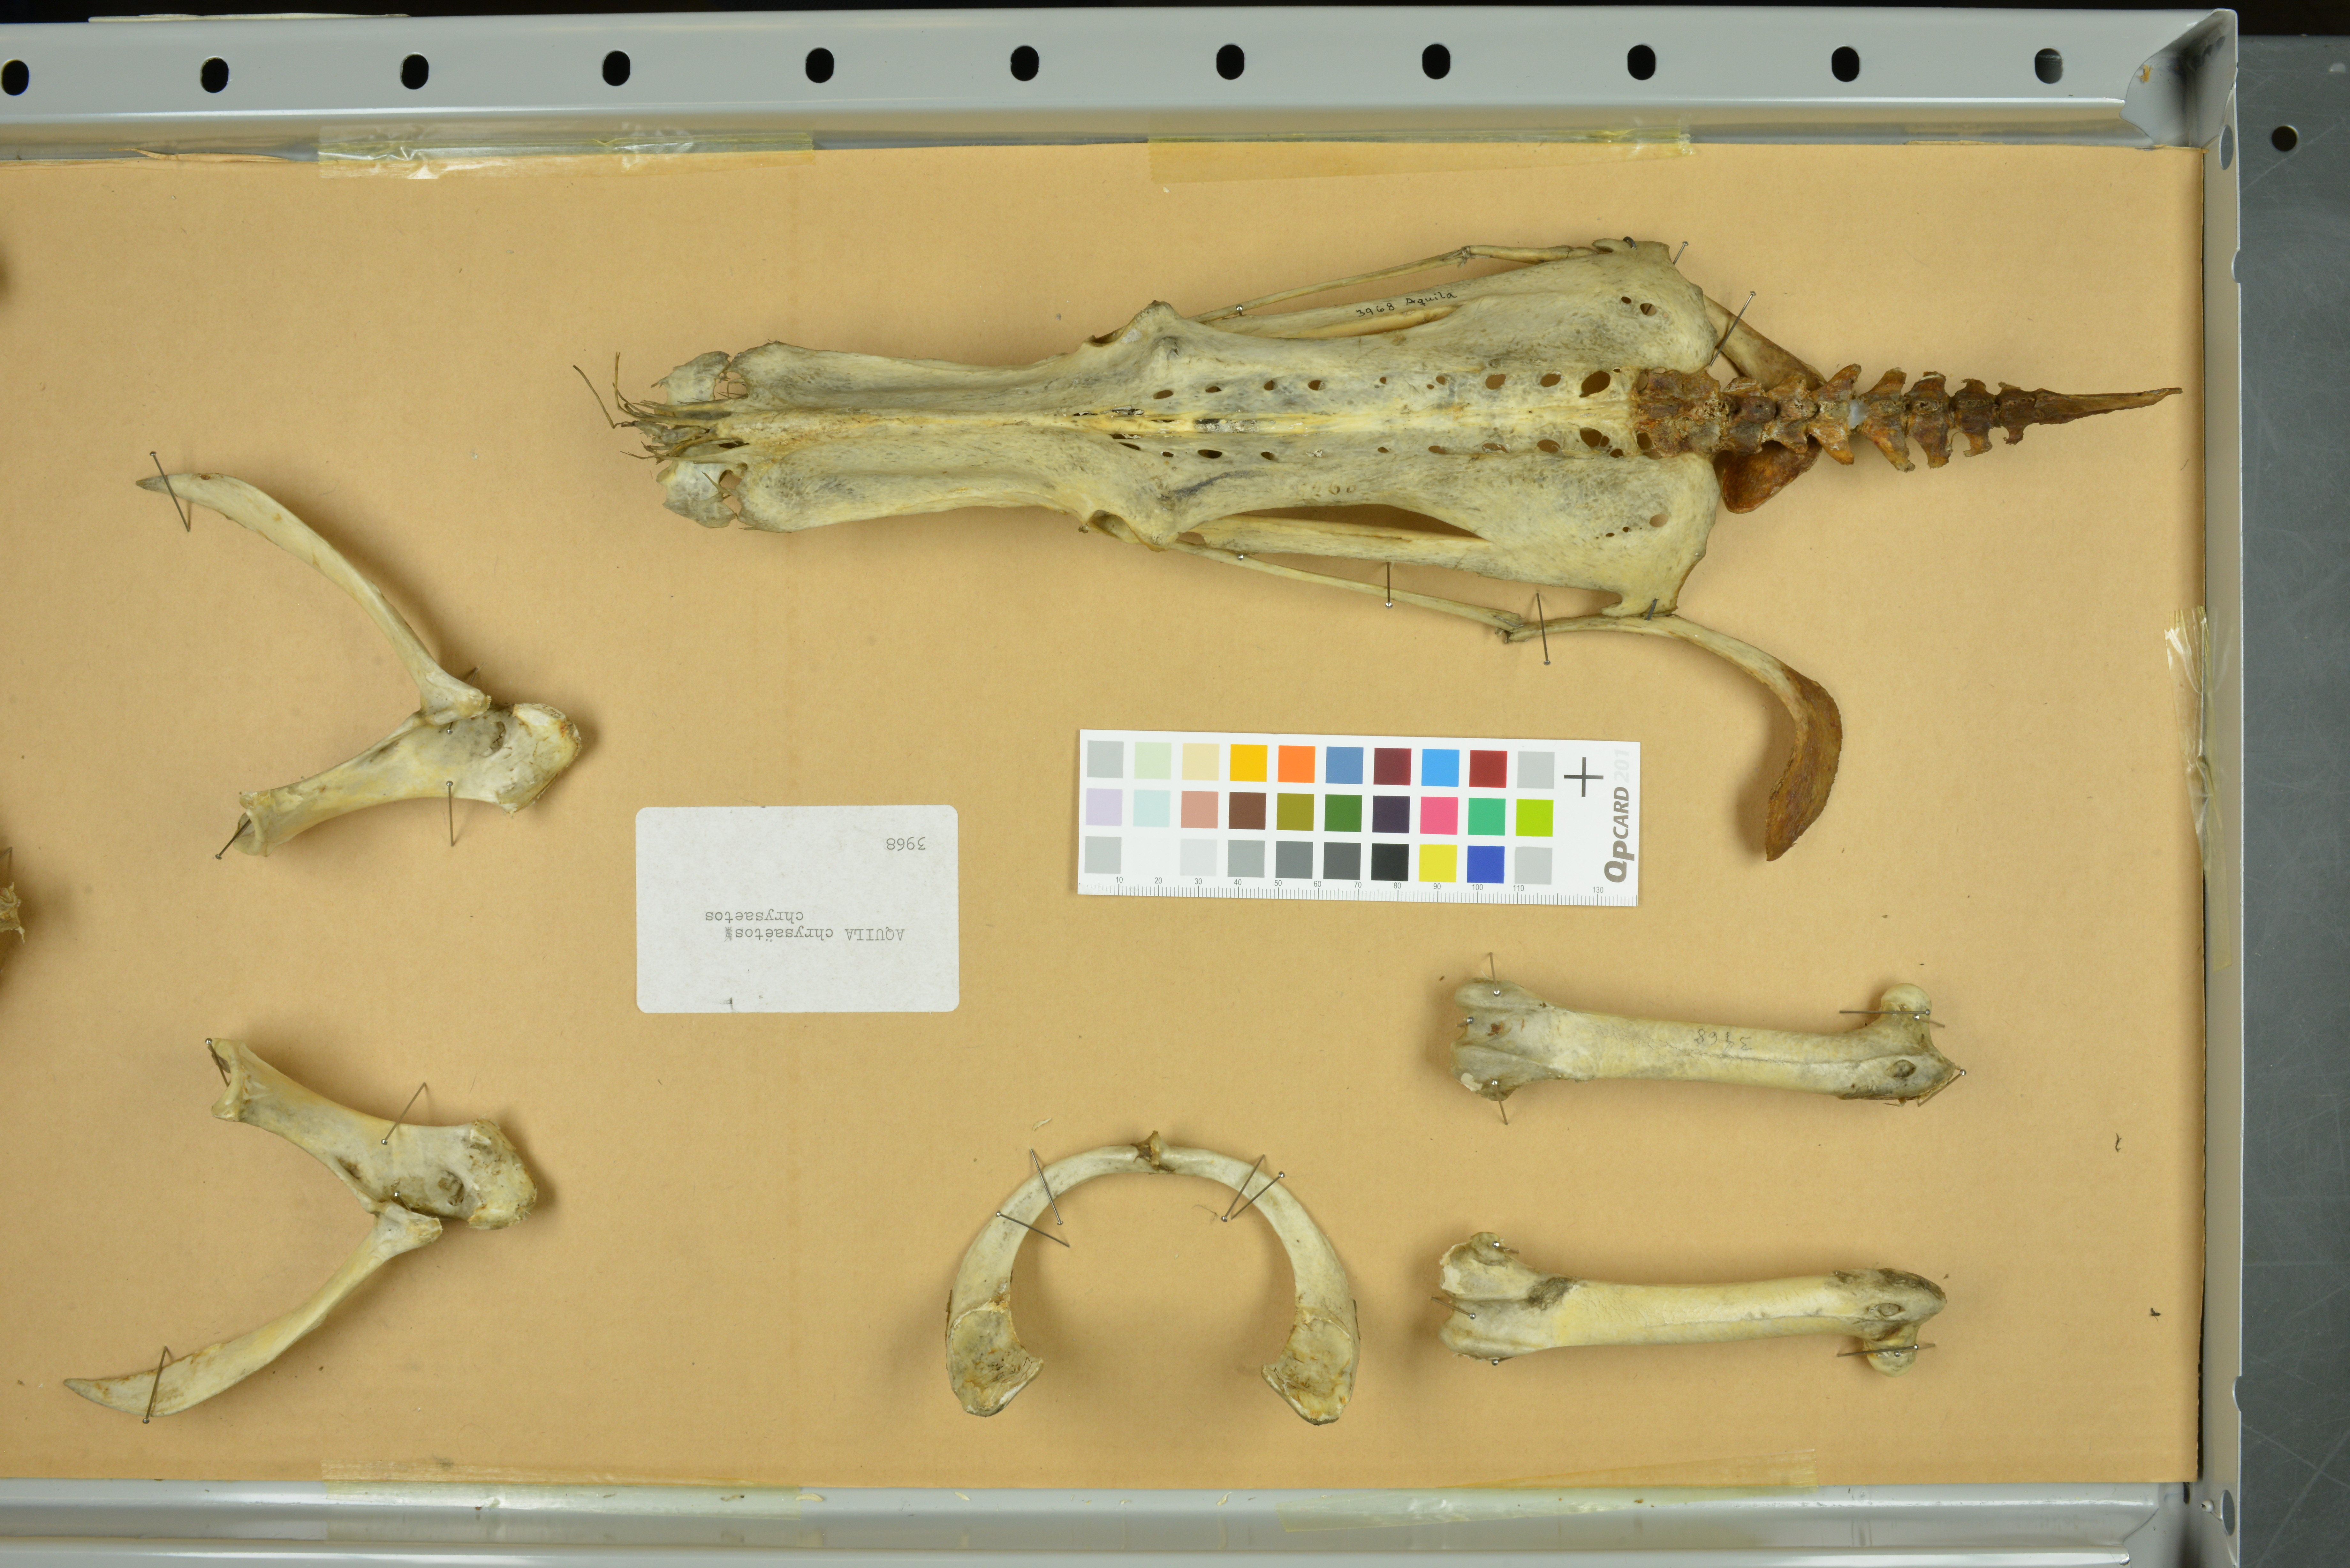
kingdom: Animalia
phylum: Chordata
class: Aves
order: Accipitriformes
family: Accipitridae
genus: Aquila
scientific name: Aquila chrysaetos
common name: Golden eagle
